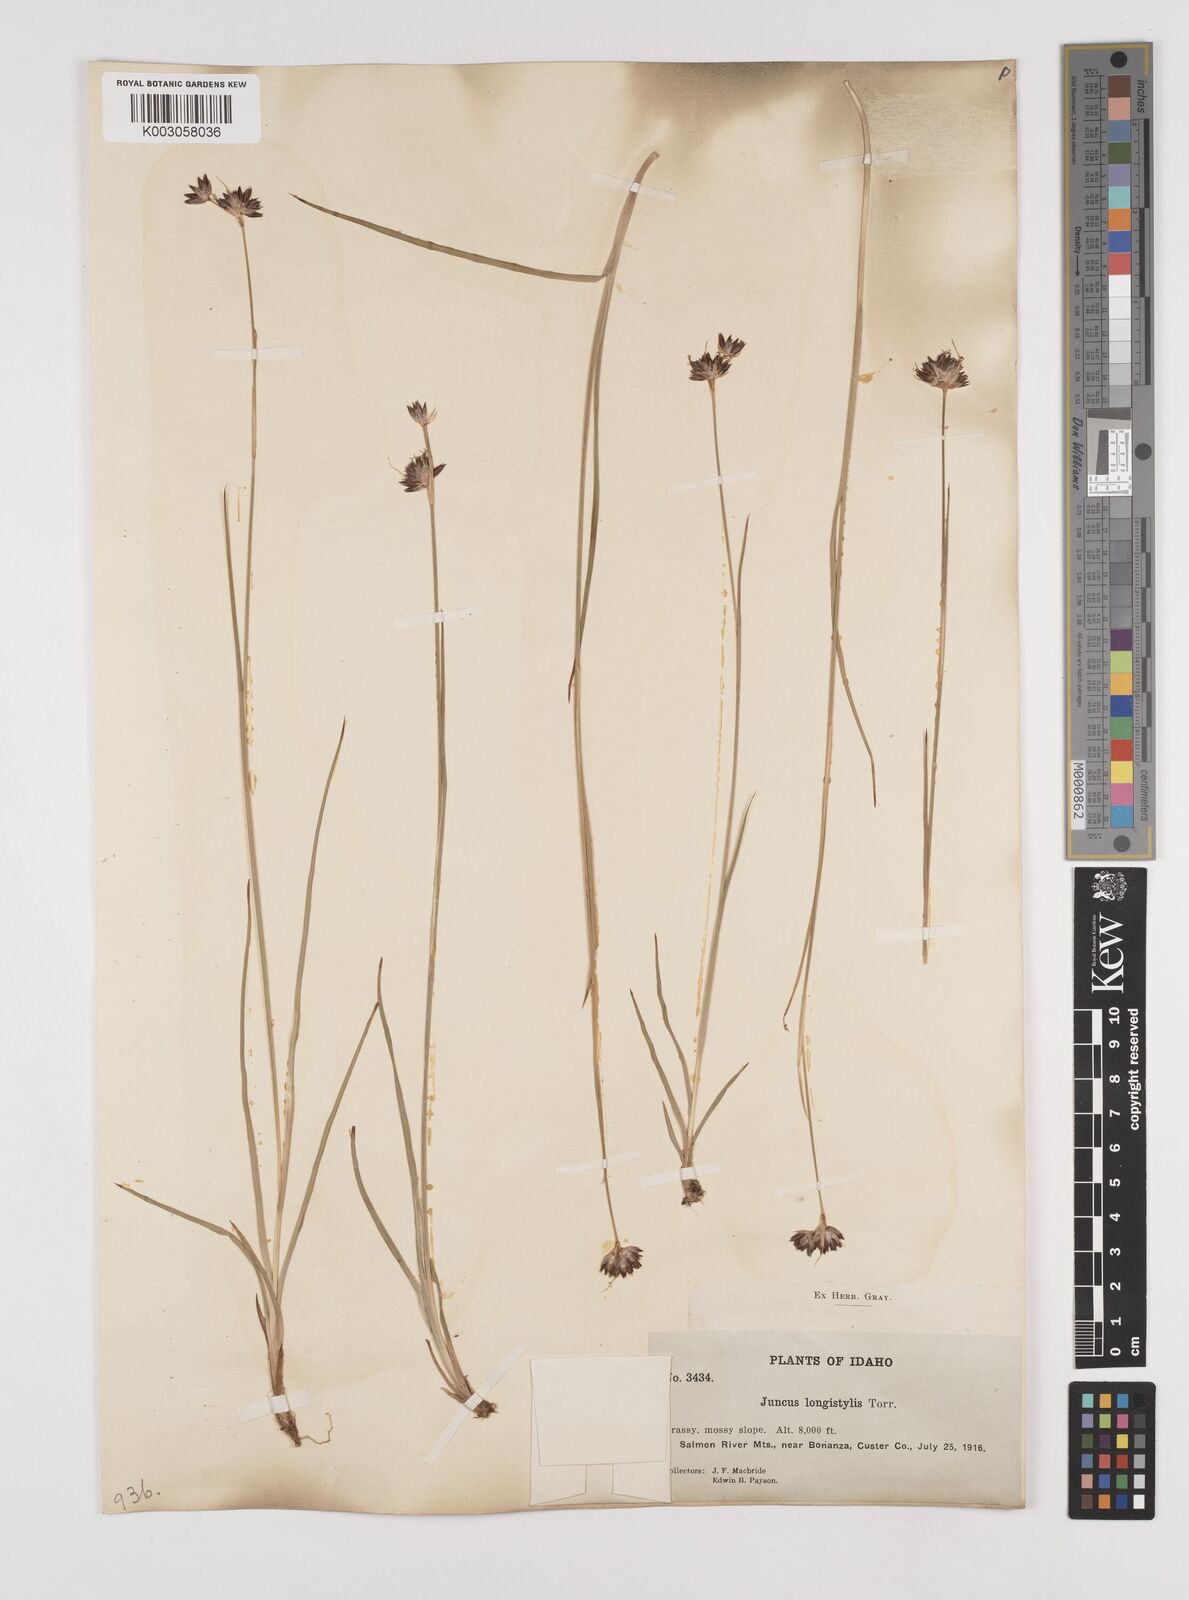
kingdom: Plantae
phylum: Tracheophyta
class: Liliopsida
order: Poales
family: Juncaceae
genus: Juncus
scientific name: Juncus longistylis
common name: Long-style rush
